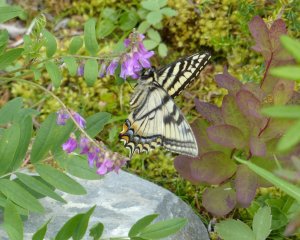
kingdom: Animalia
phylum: Arthropoda
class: Insecta
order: Lepidoptera
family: Papilionidae
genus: Pterourus
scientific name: Pterourus canadensis
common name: Canadian Tiger Swallowtail
